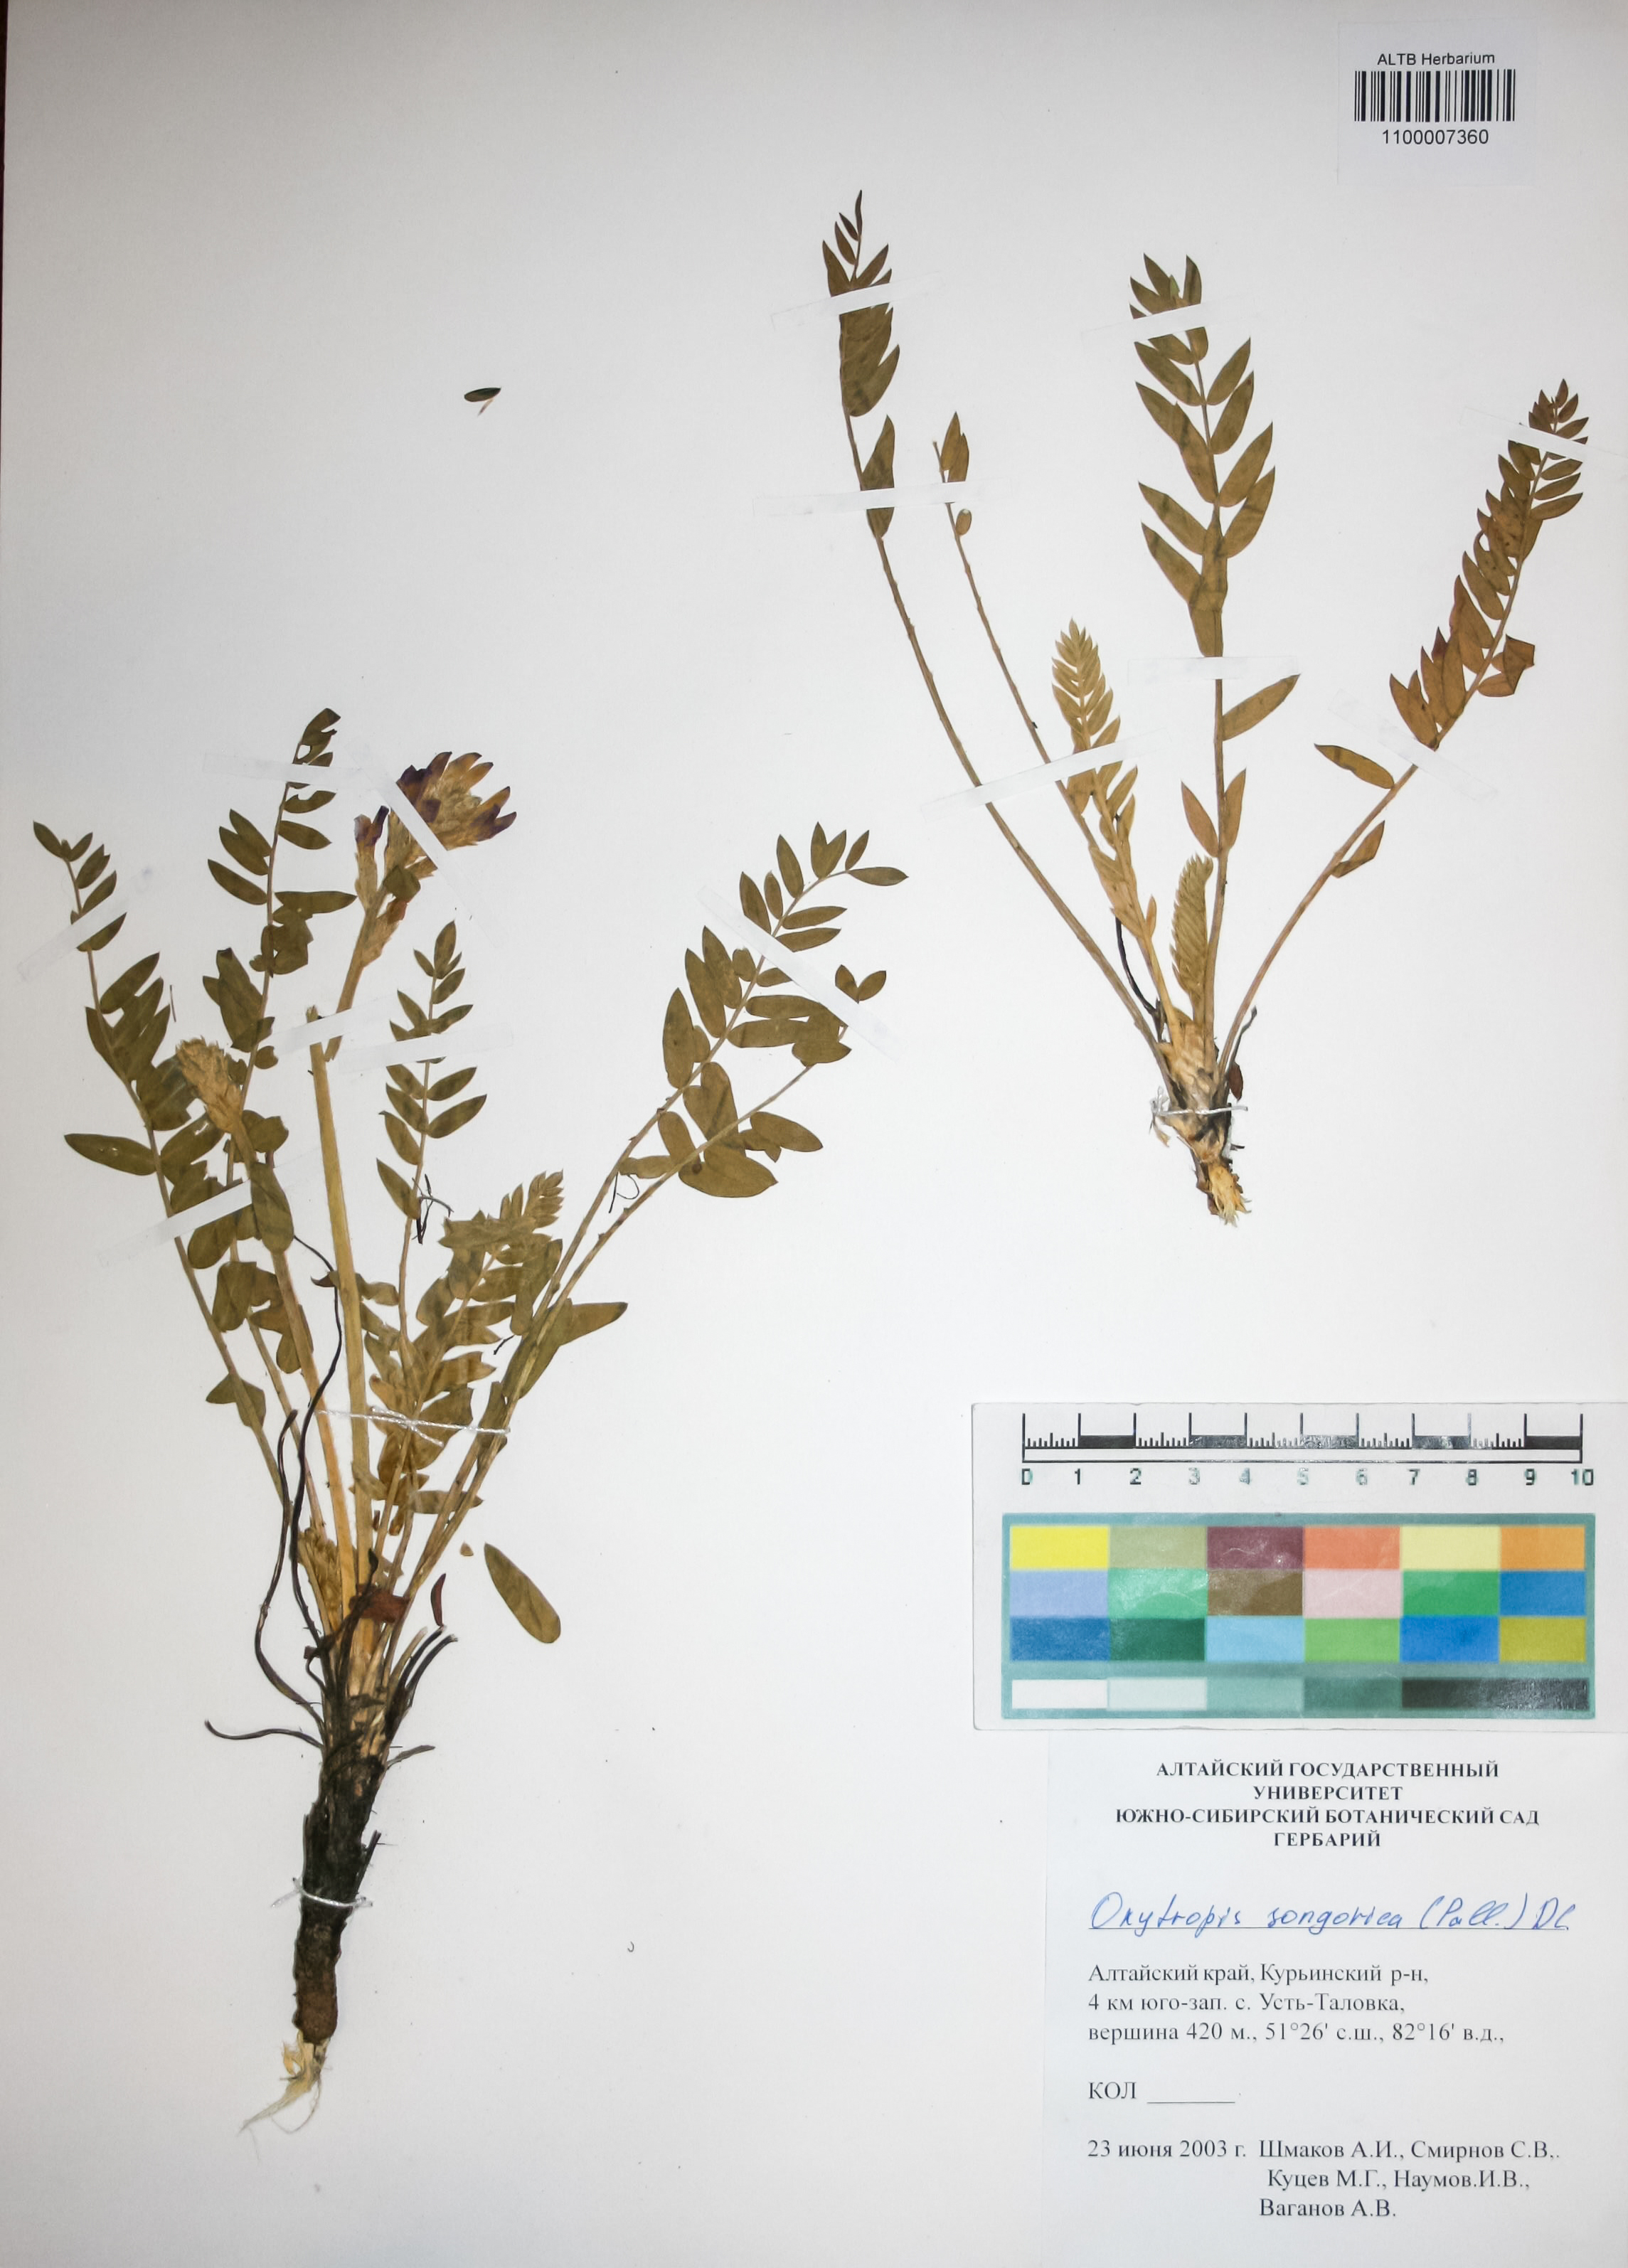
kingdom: Plantae
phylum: Tracheophyta
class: Magnoliopsida
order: Fabales
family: Fabaceae
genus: Oxytropis
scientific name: Oxytropis songorica
